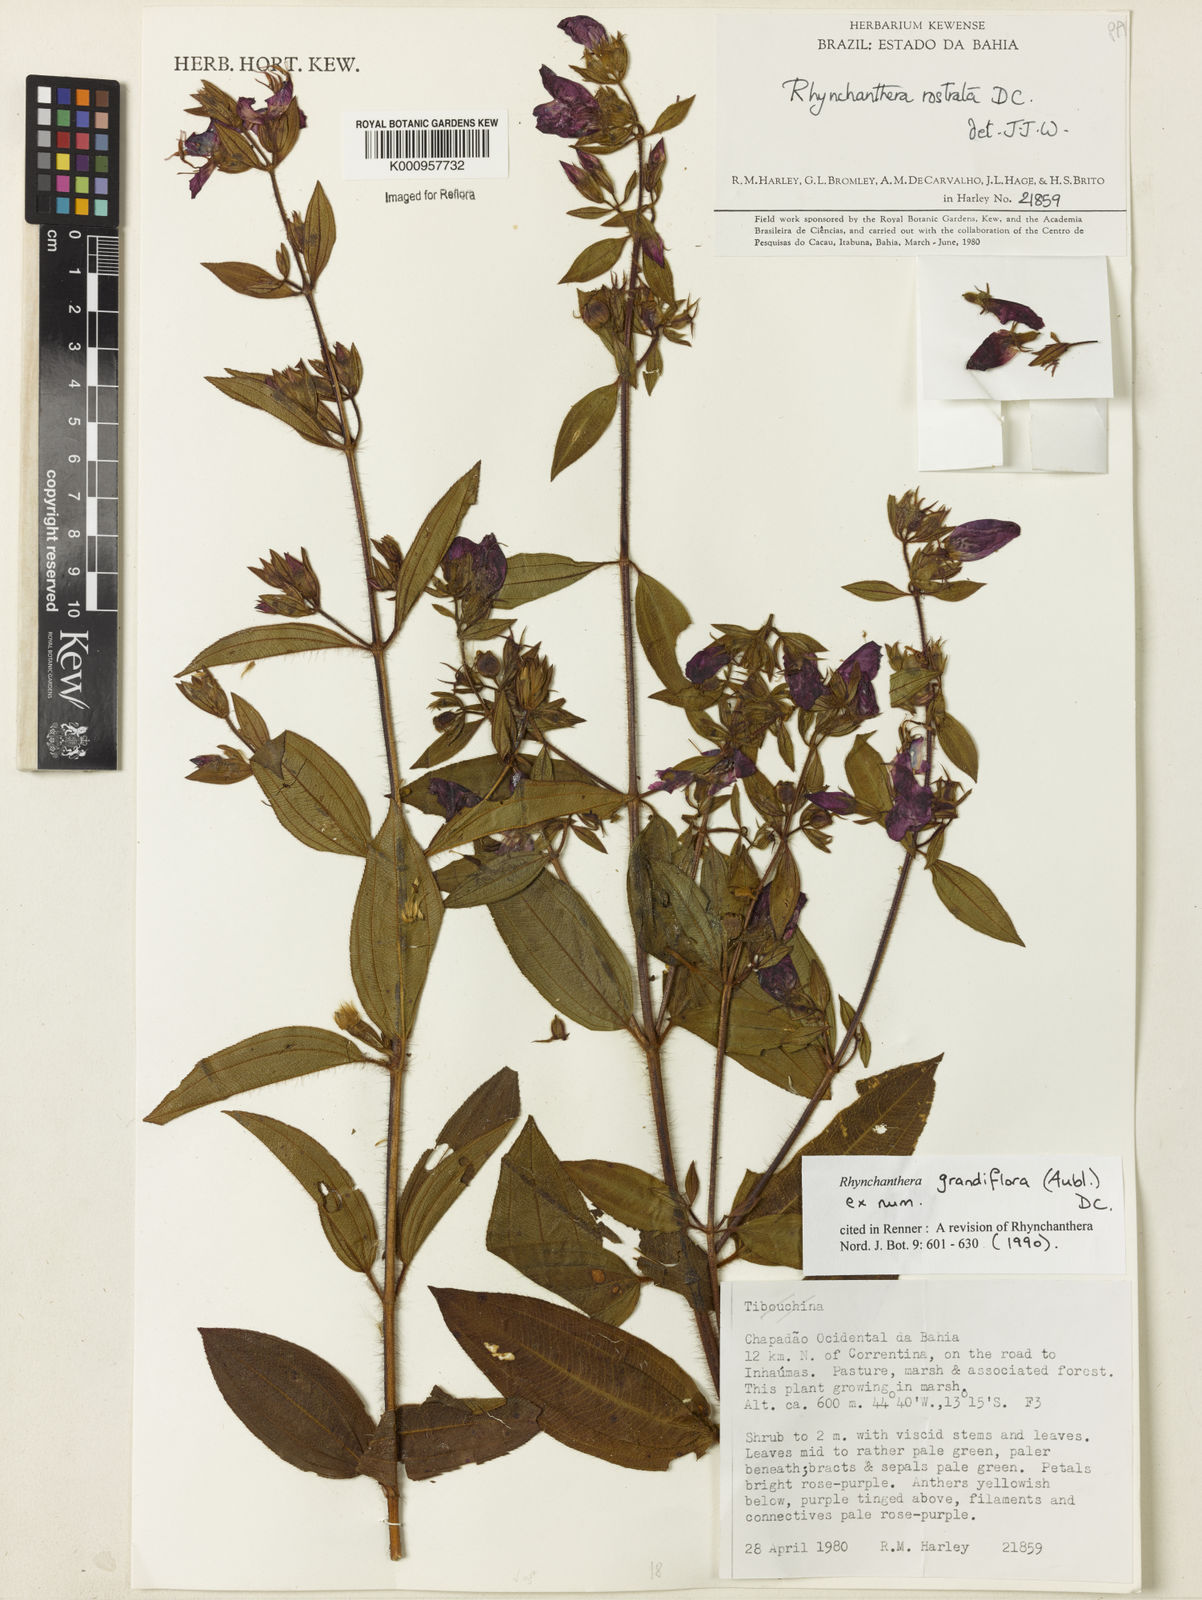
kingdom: Plantae
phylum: Tracheophyta
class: Magnoliopsida
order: Myrtales
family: Melastomataceae
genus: Rhynchanthera
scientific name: Rhynchanthera grandiflora
